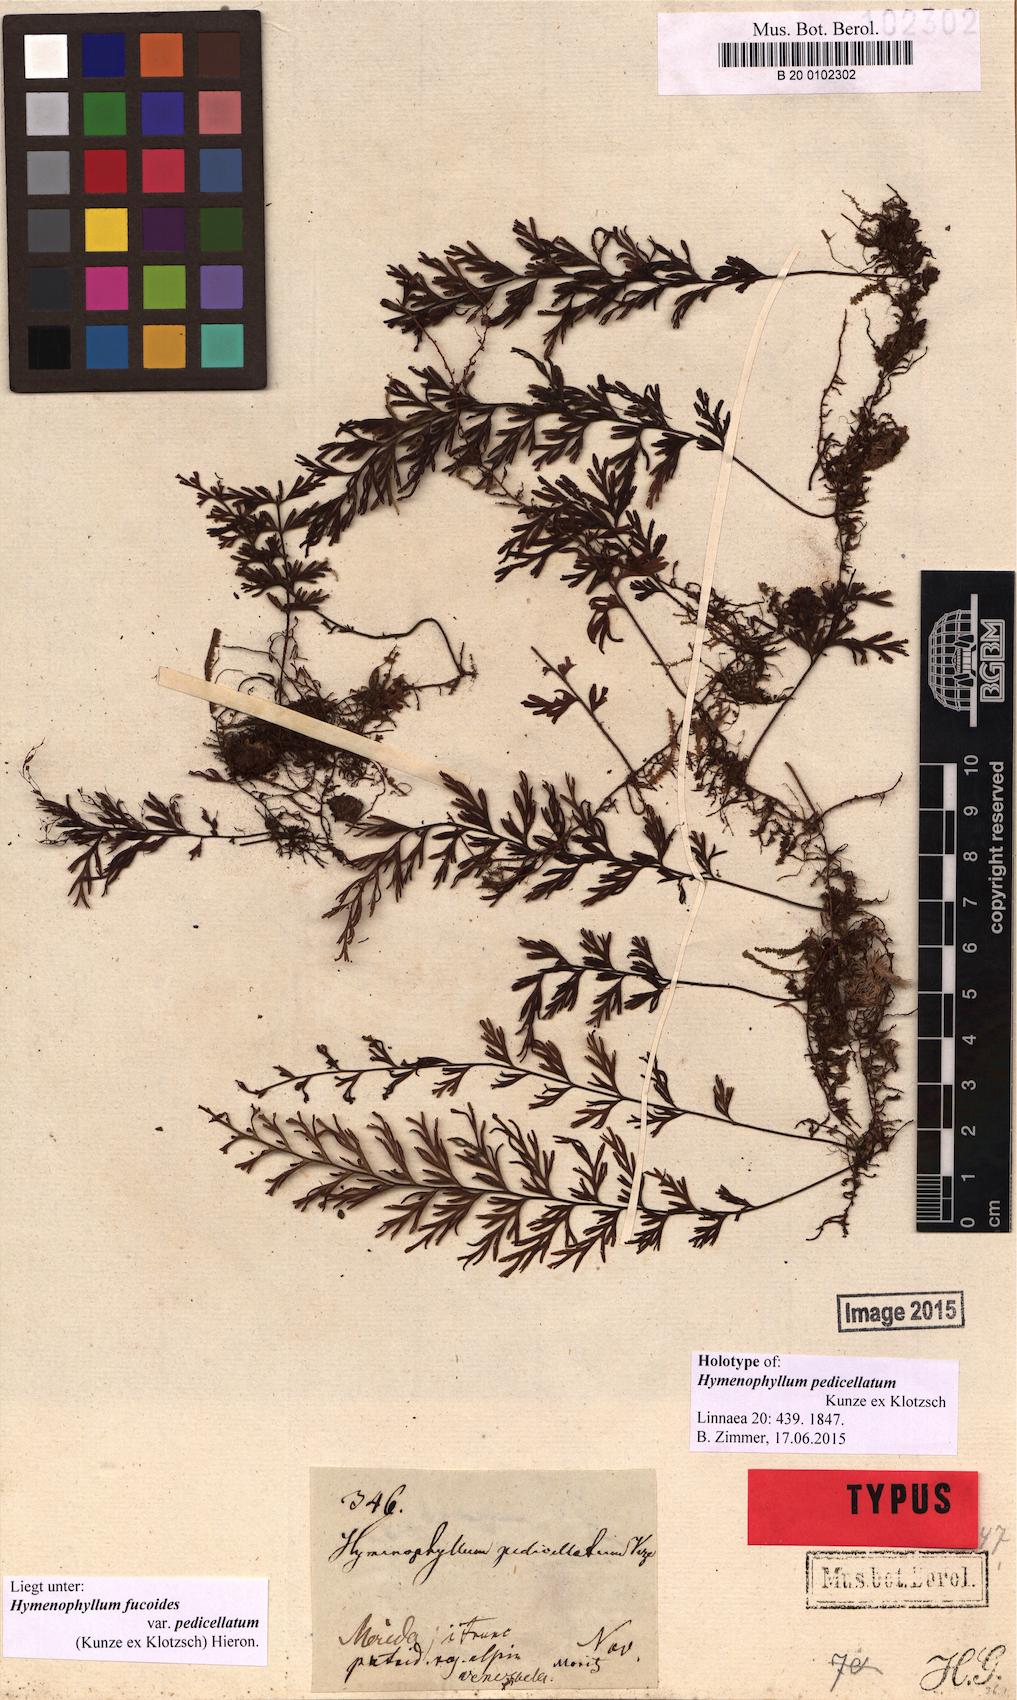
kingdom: Plantae
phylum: Tracheophyta
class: Polypodiopsida
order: Hymenophyllales
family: Hymenophyllaceae
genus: Hymenophyllum
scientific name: Hymenophyllum pallidum
